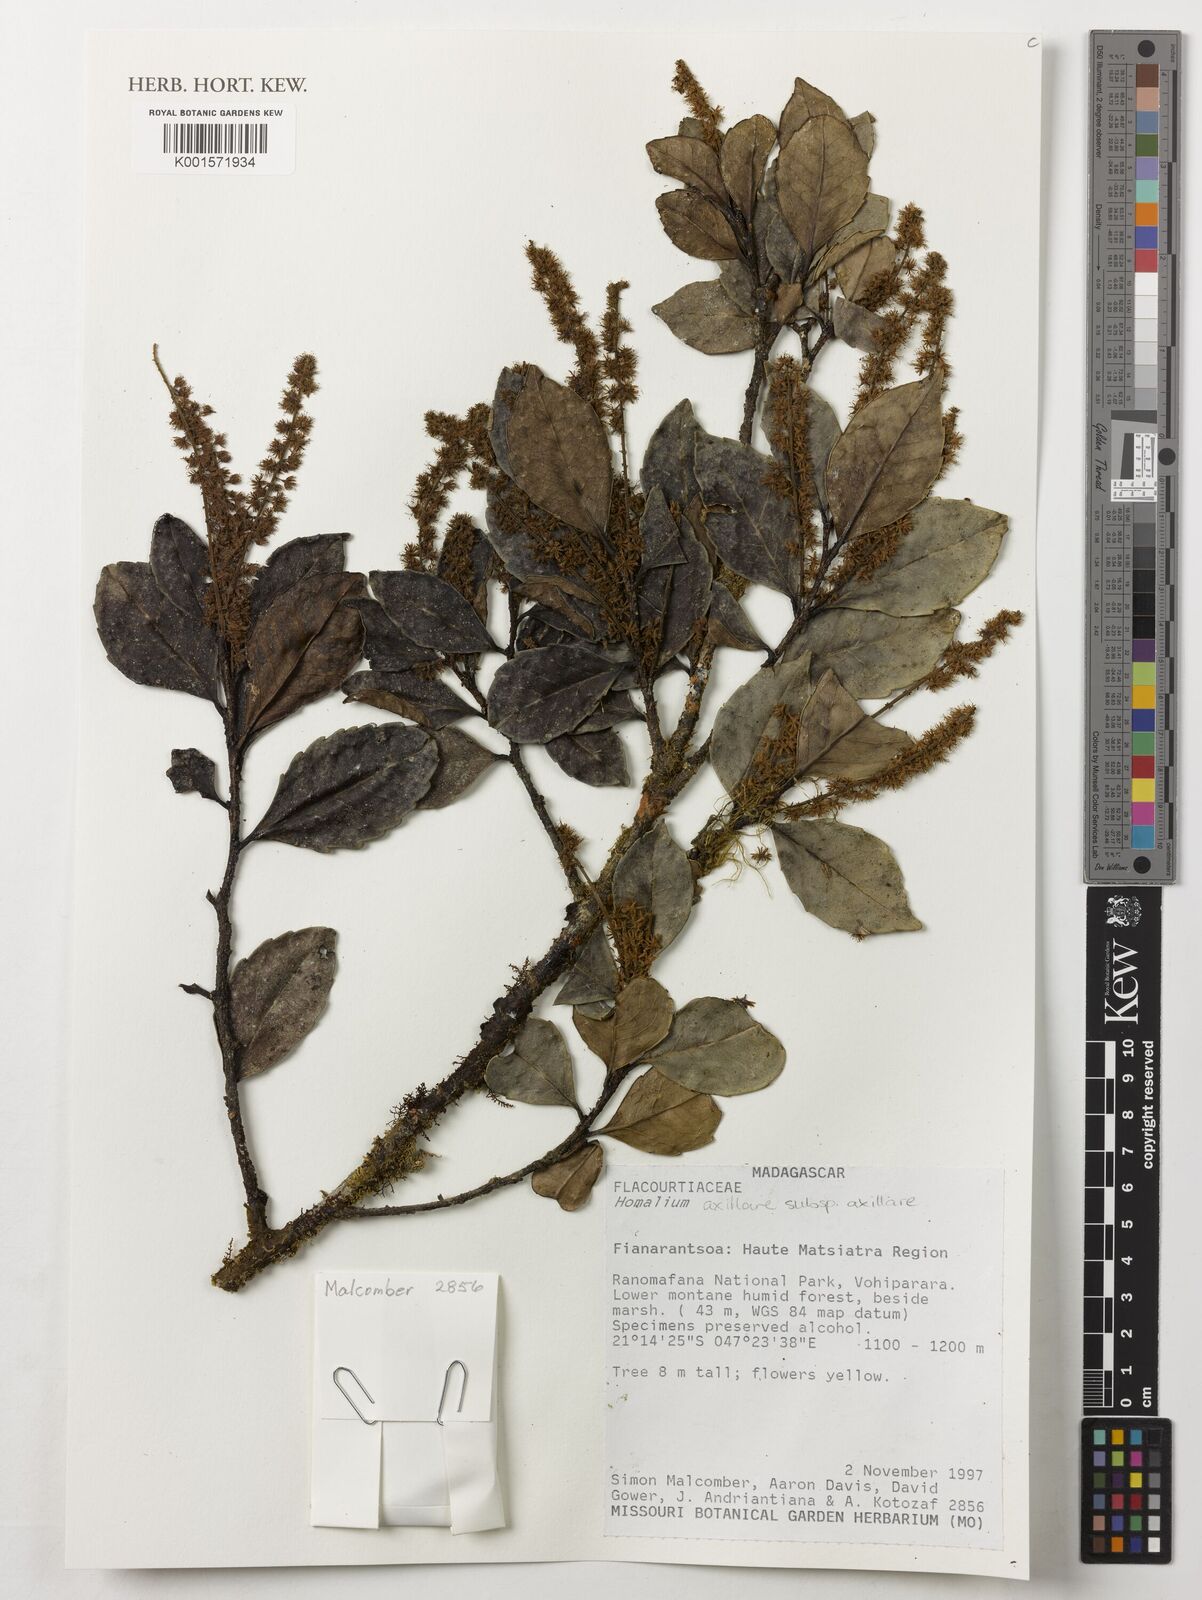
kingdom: Plantae
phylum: Tracheophyta
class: Magnoliopsida
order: Malpighiales
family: Salicaceae
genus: Homalium
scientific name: Homalium axillare
